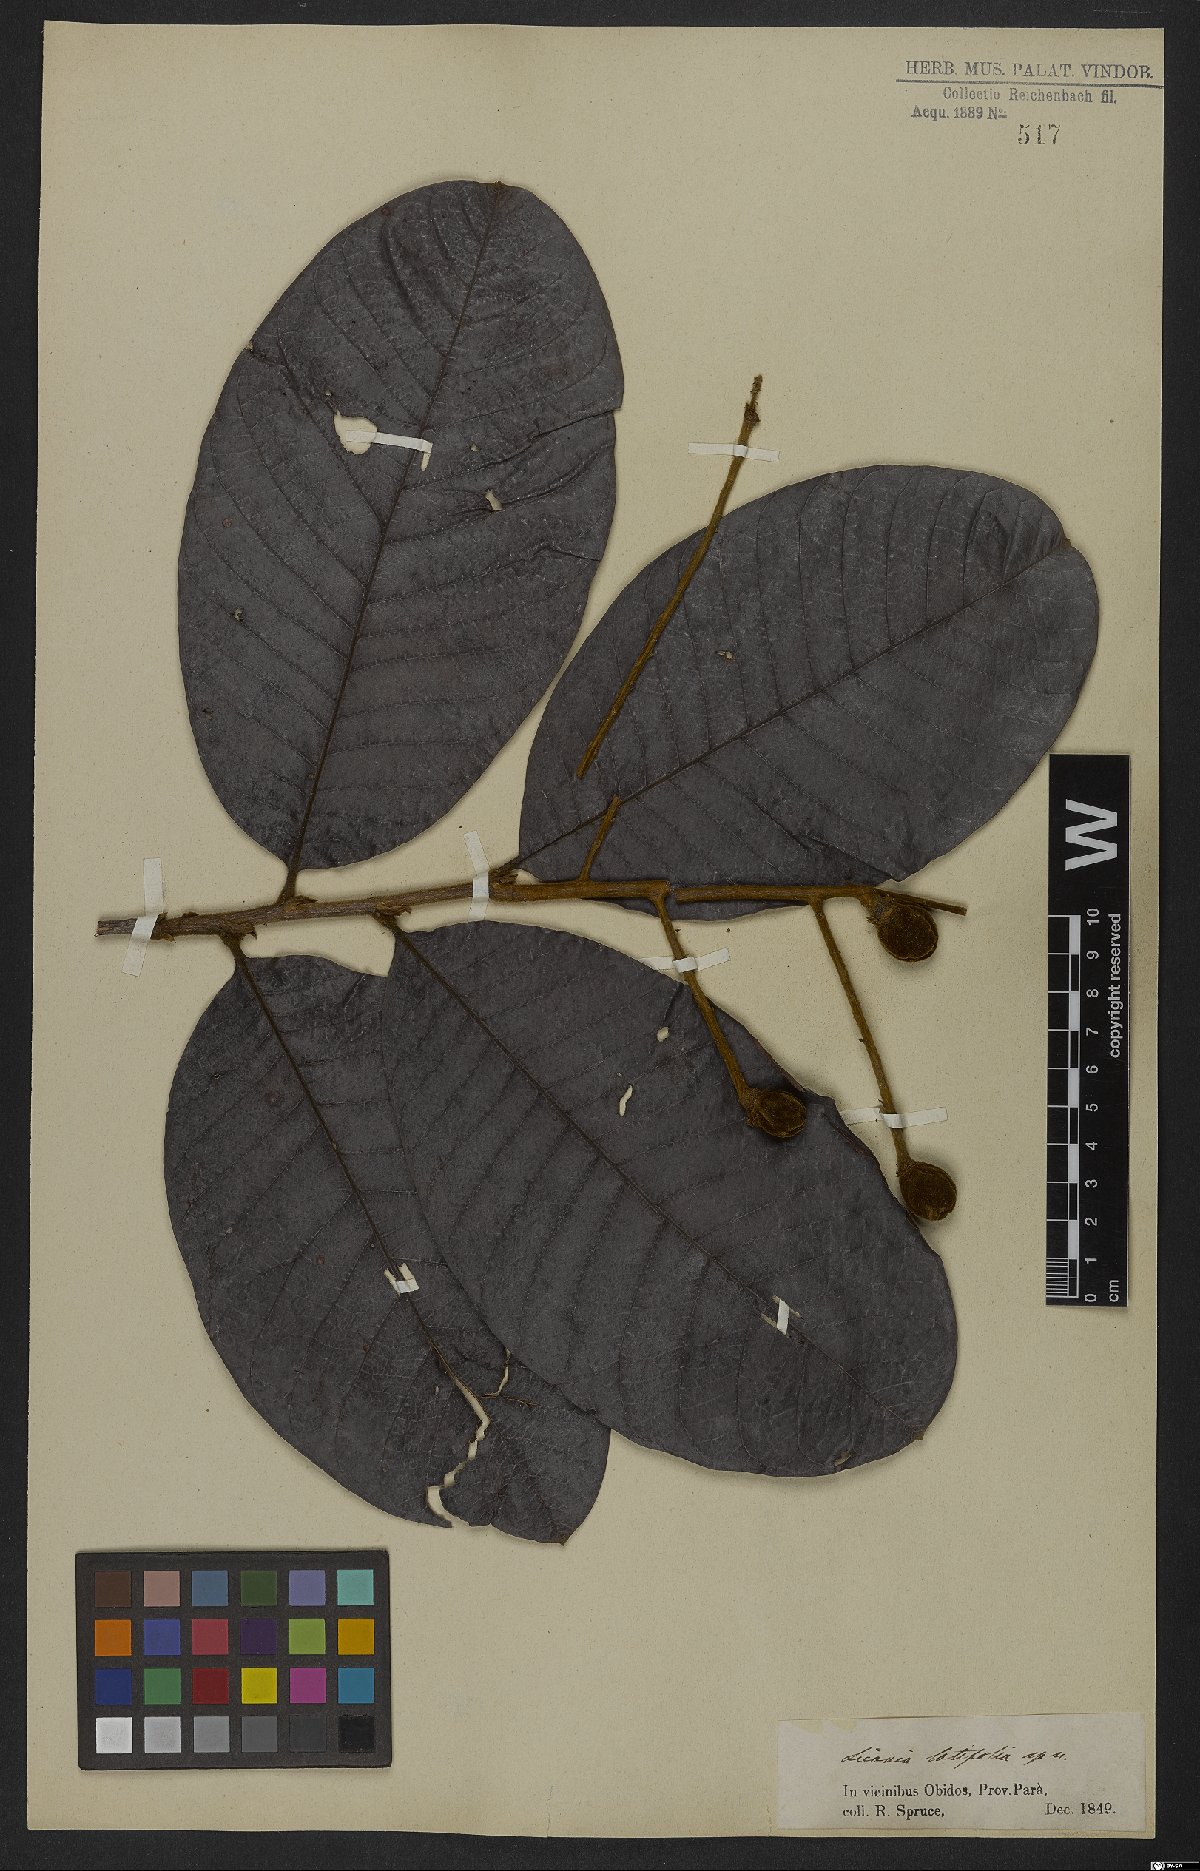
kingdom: Plantae
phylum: Tracheophyta
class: Magnoliopsida
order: Malpighiales
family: Chrysobalanaceae
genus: Hymenopus
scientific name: Hymenopus latifolius
